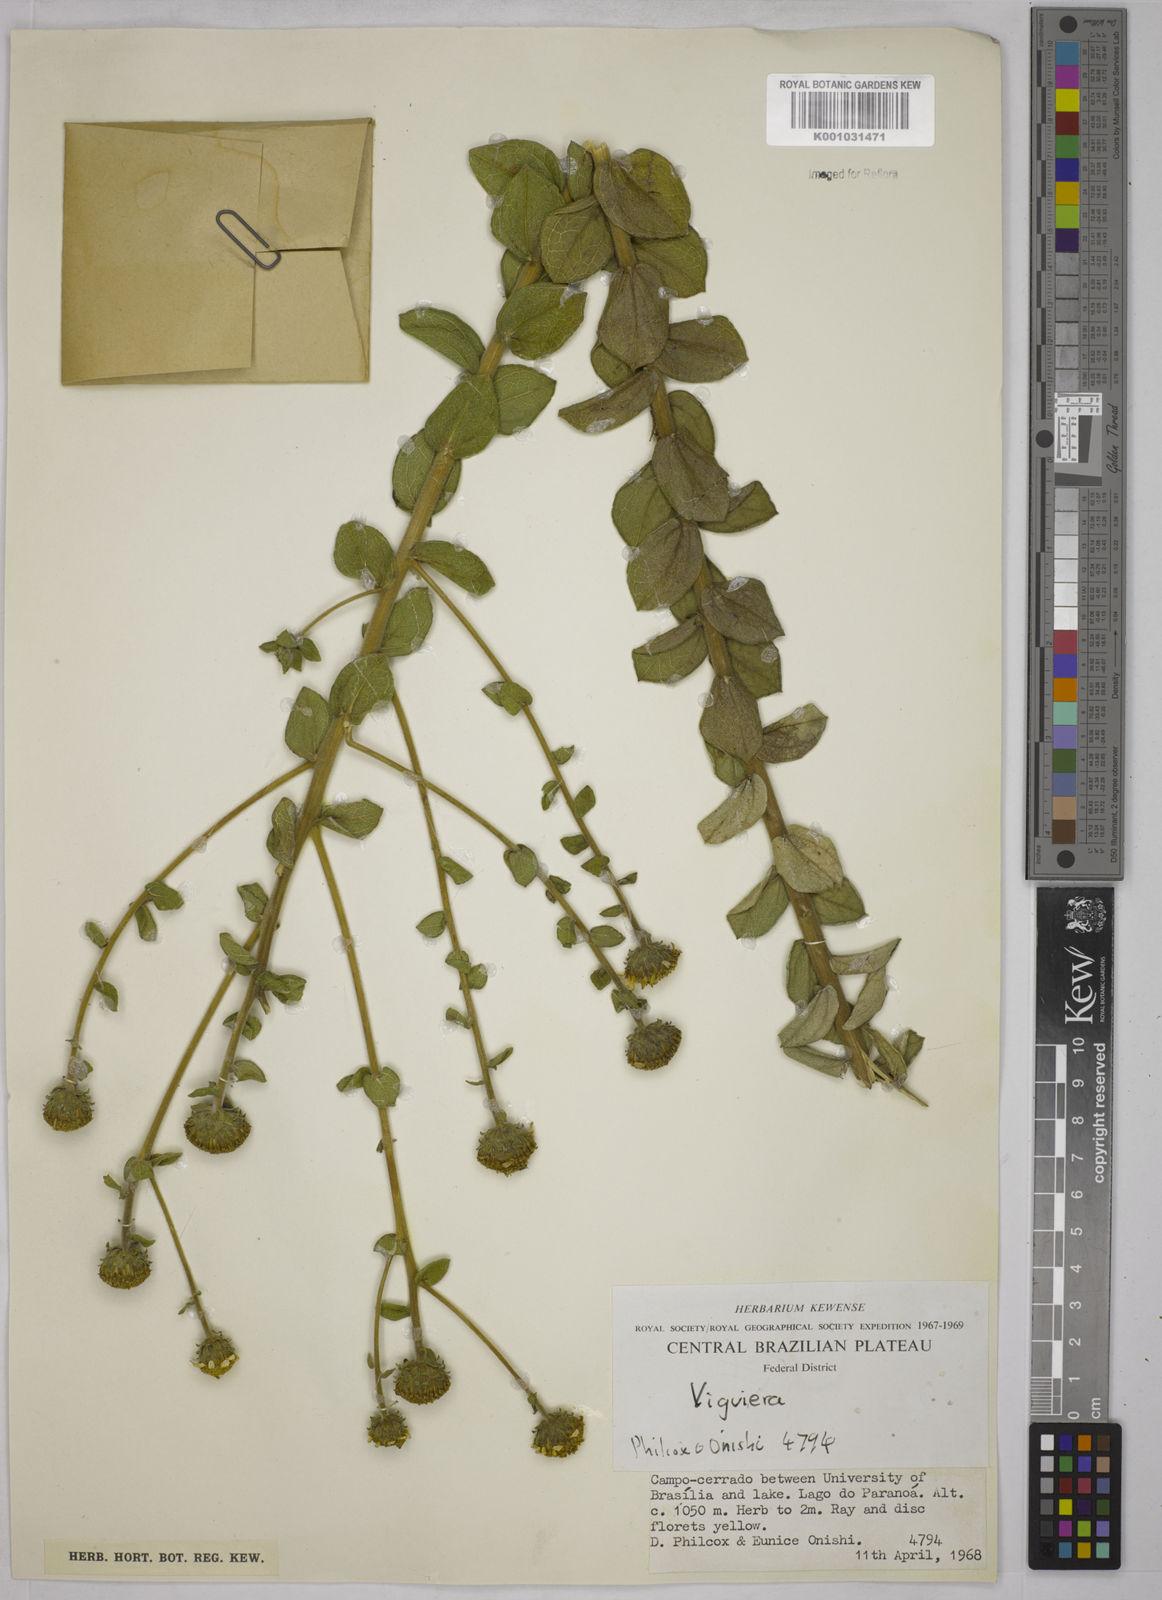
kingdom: Plantae
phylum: Tracheophyta
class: Magnoliopsida
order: Asterales
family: Asteraceae
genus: Aldama
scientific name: Aldama robusta
